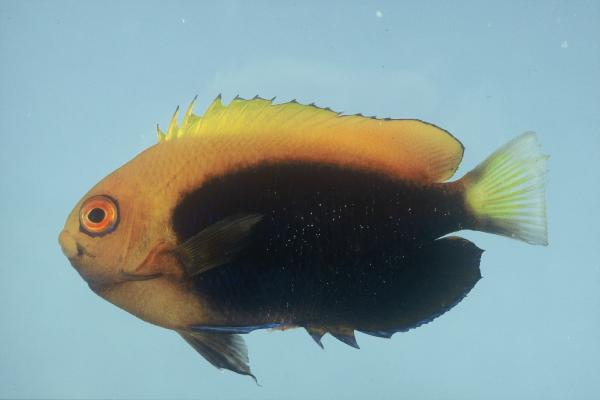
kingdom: Animalia
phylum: Chordata
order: Perciformes
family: Pomacanthidae
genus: Centropyge
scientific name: Centropyge acanthops
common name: African pygmy angelfish
